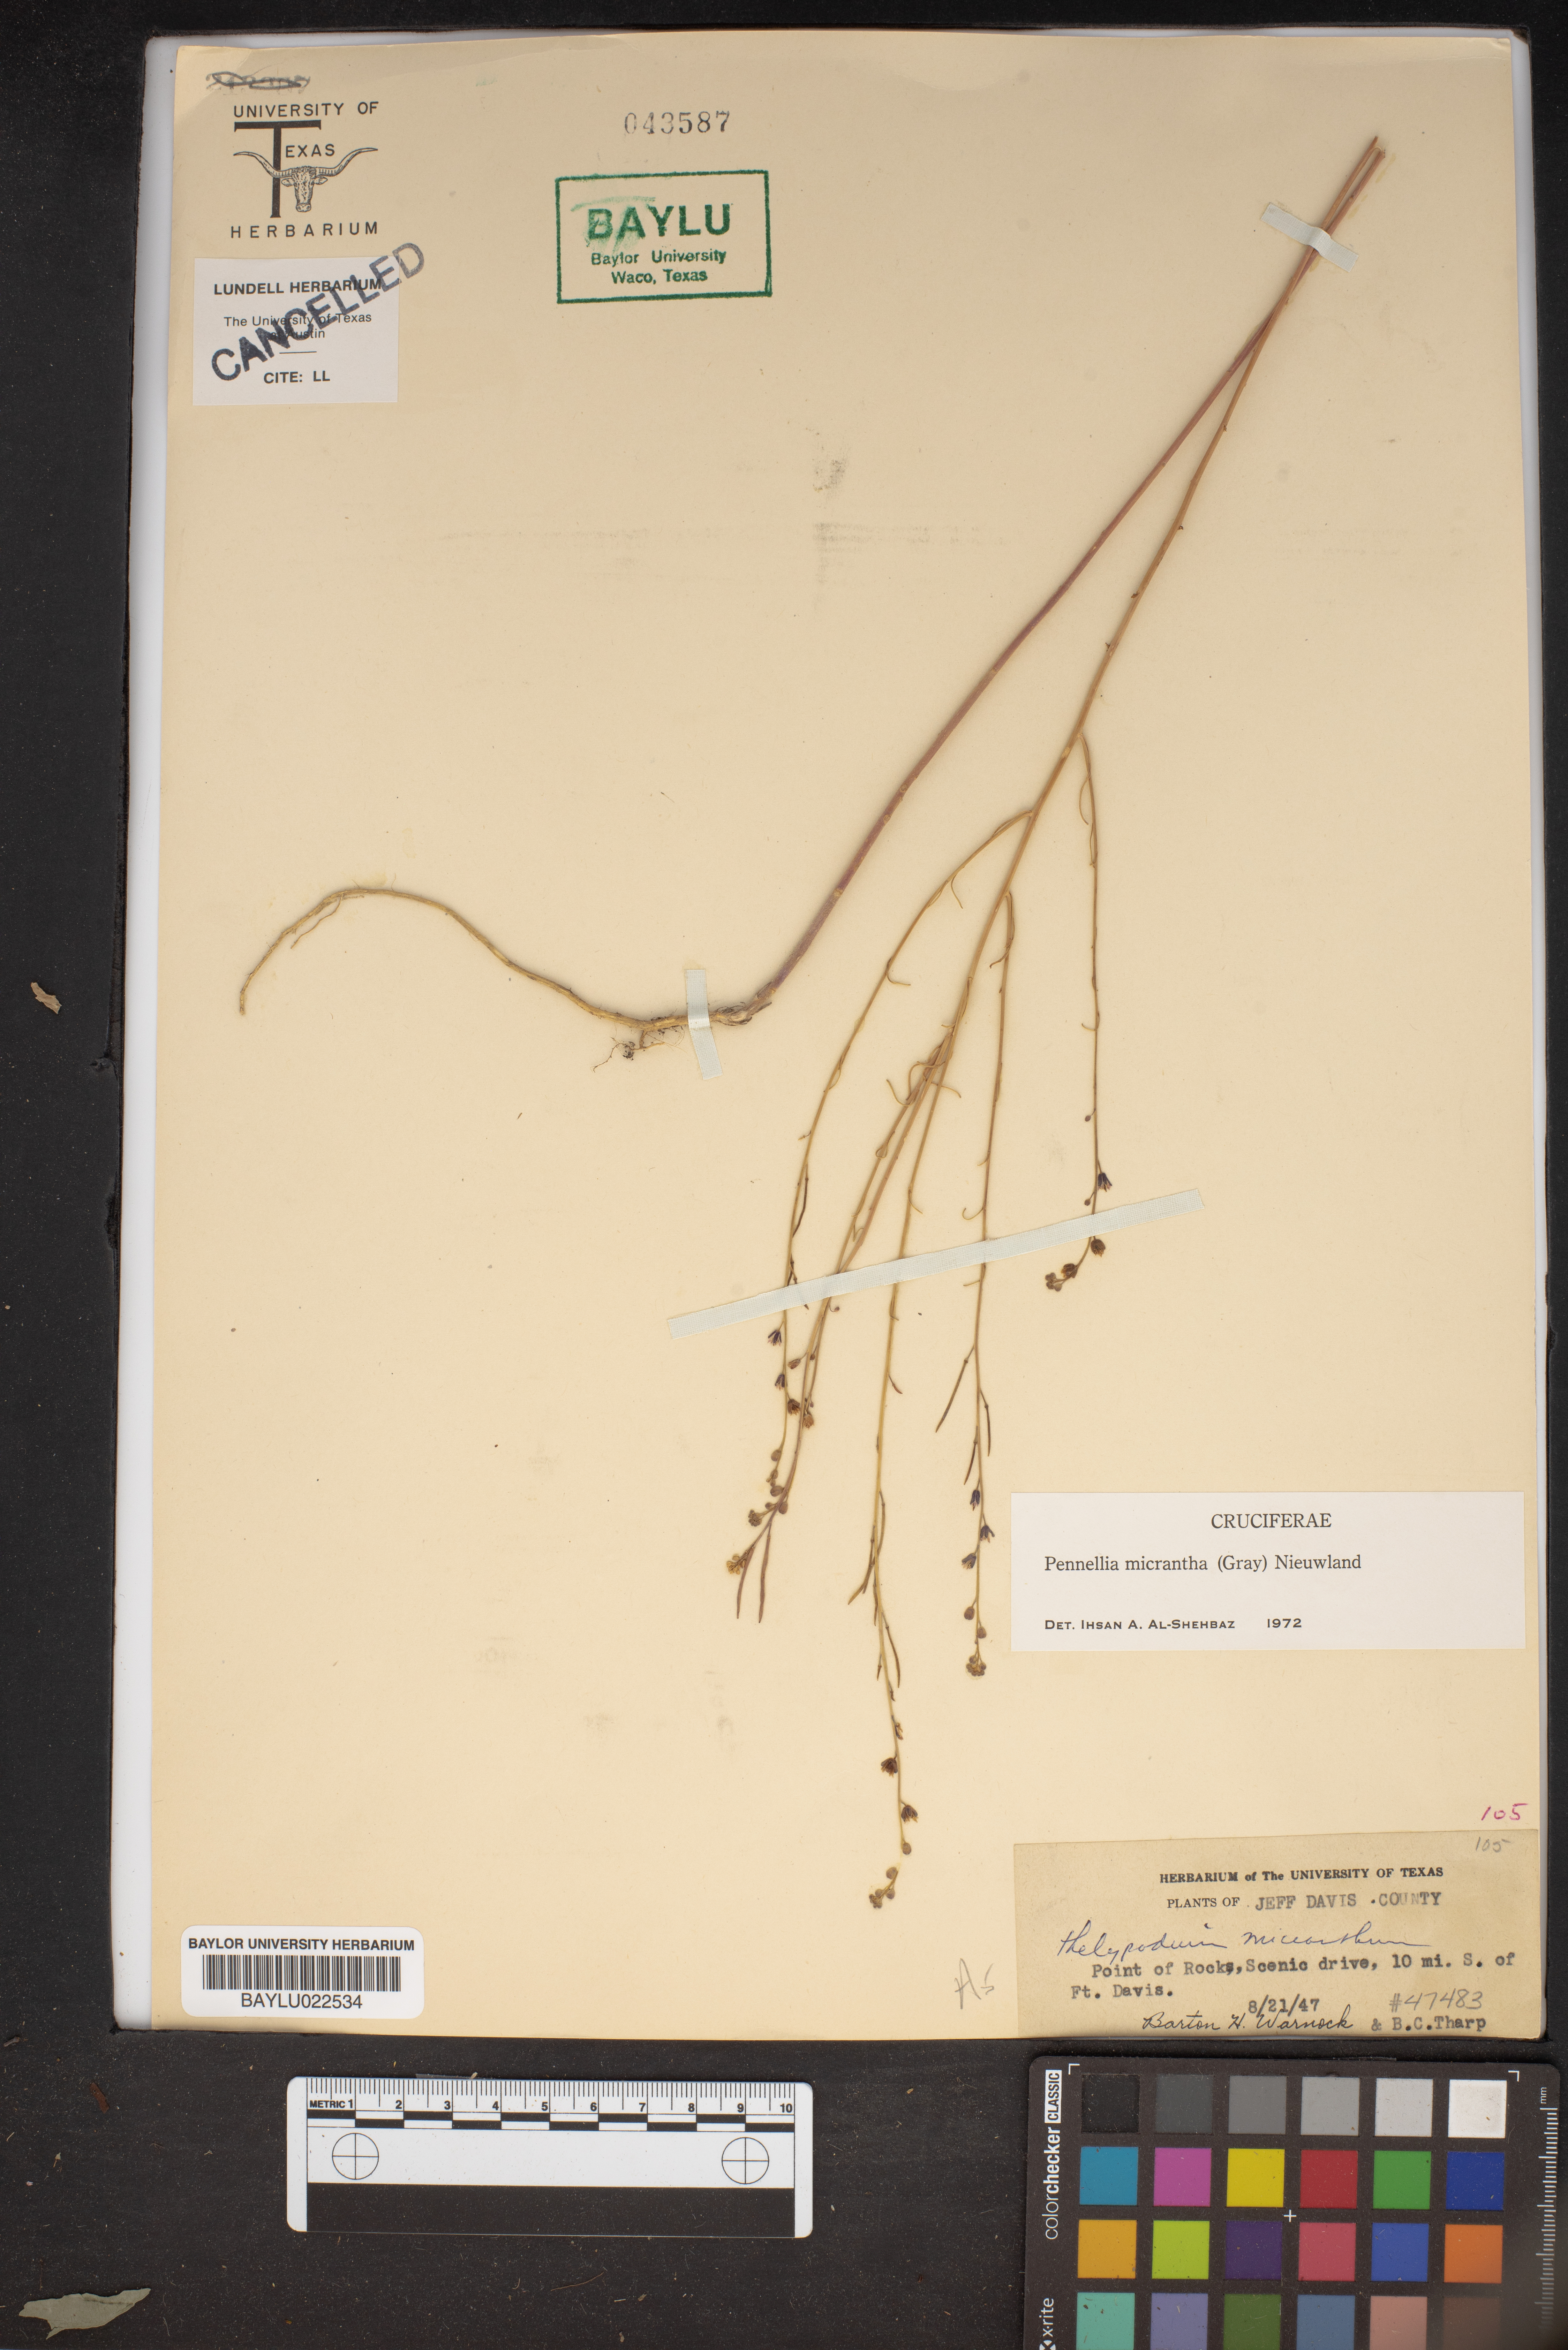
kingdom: Plantae
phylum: Tracheophyta
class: Magnoliopsida
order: Brassicales
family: Brassicaceae
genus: Pennellia
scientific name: Pennellia micrantha
